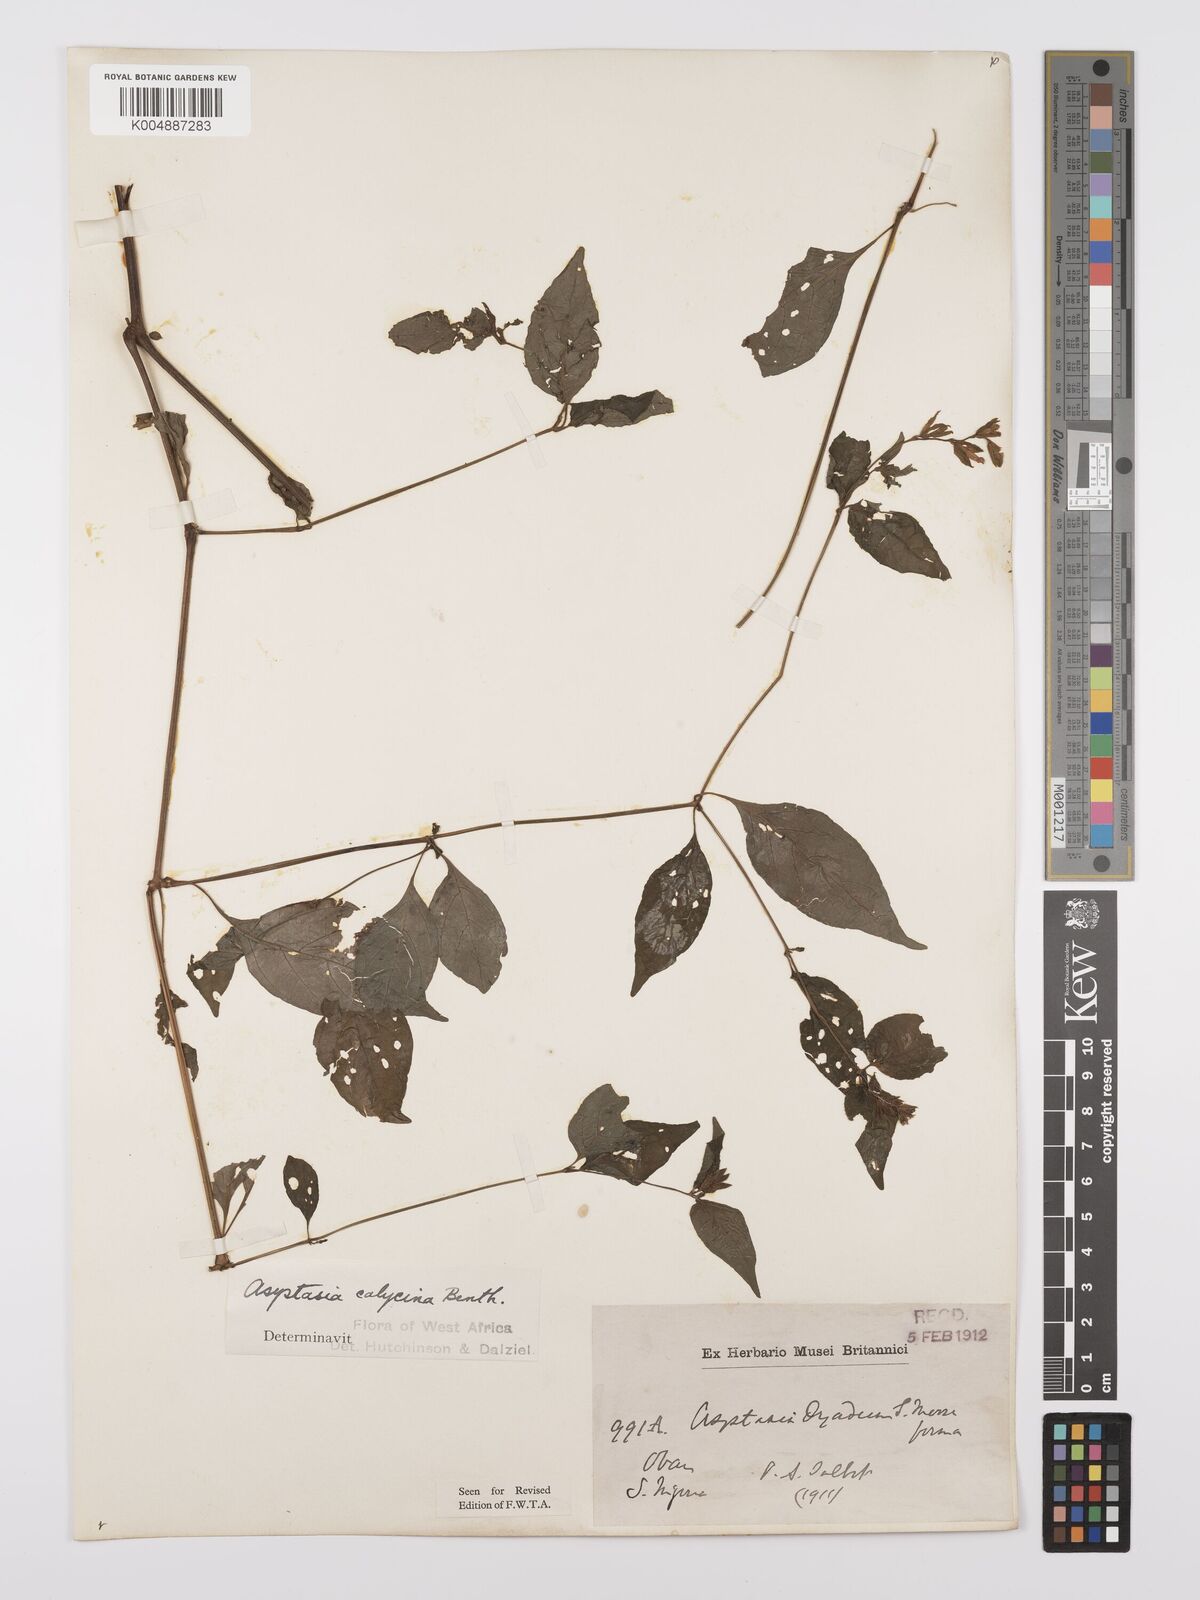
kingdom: Plantae
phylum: Tracheophyta
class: Magnoliopsida
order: Lamiales
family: Acanthaceae
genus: Asystasia
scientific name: Asystasia buettneri
